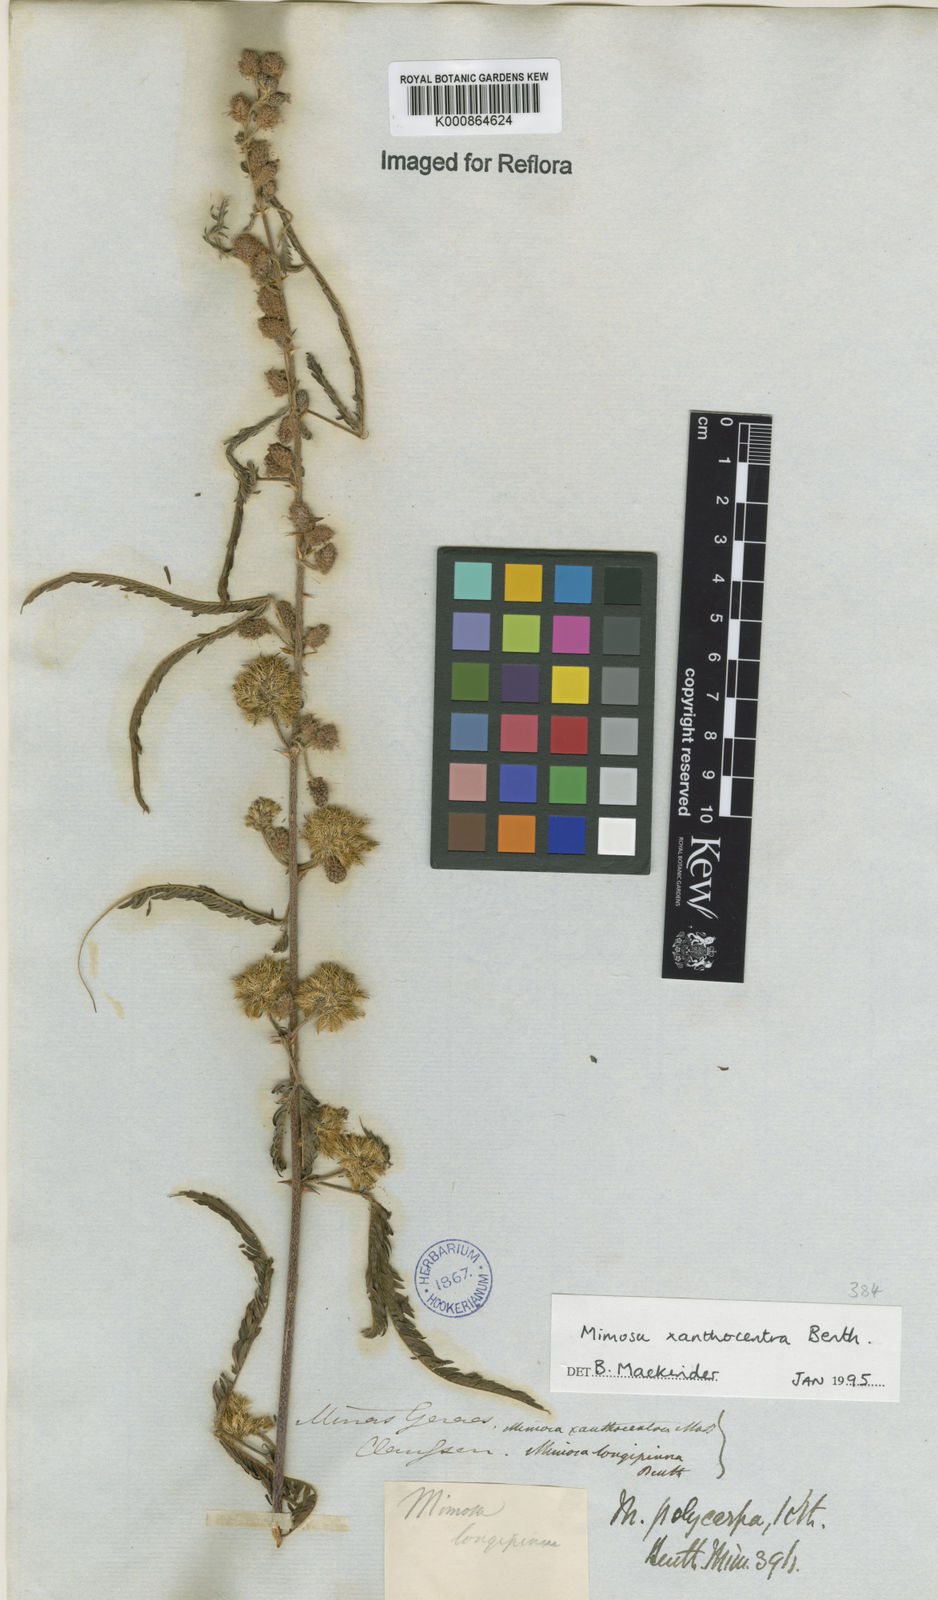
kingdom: Plantae
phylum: Tracheophyta
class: Magnoliopsida
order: Fabales
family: Fabaceae
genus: Mimosa
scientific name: Mimosa
